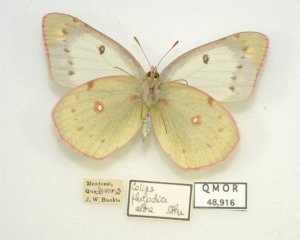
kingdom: Animalia
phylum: Arthropoda
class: Insecta
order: Lepidoptera
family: Pieridae
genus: Colias
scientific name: Colias philodice
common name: Clouded Sulphur
